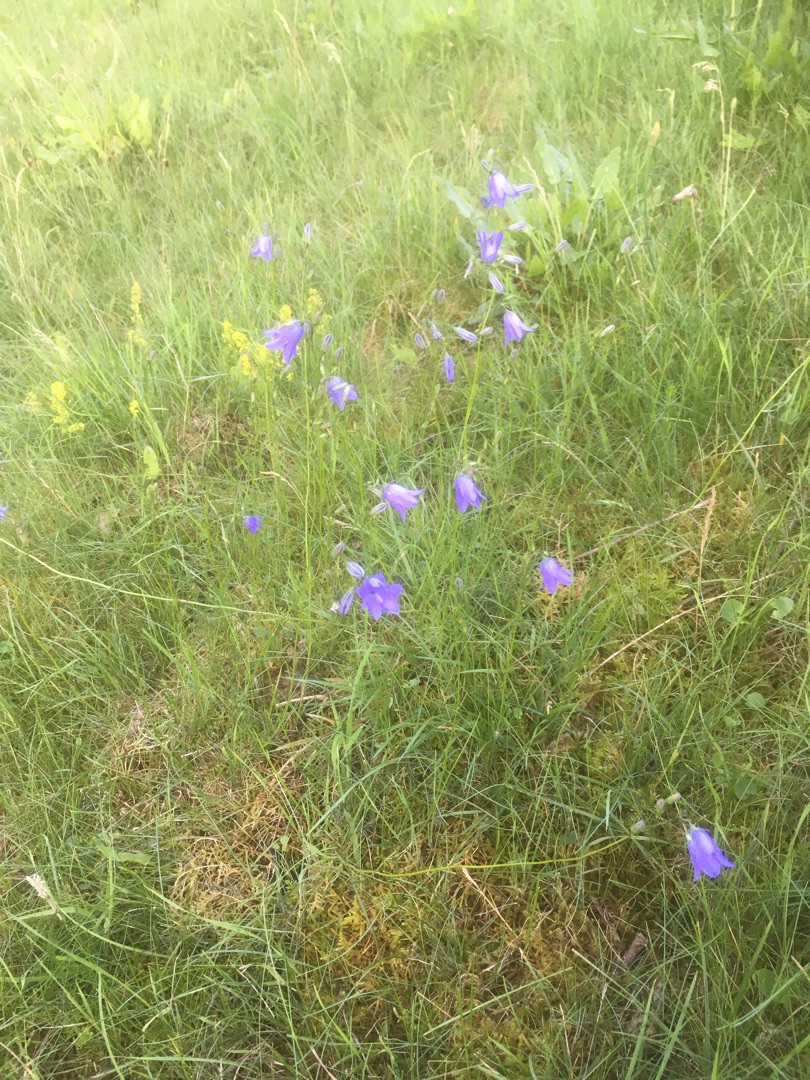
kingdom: Plantae
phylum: Tracheophyta
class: Magnoliopsida
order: Asterales
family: Campanulaceae
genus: Campanula
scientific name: Campanula rotundifolia
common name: Liden klokke
